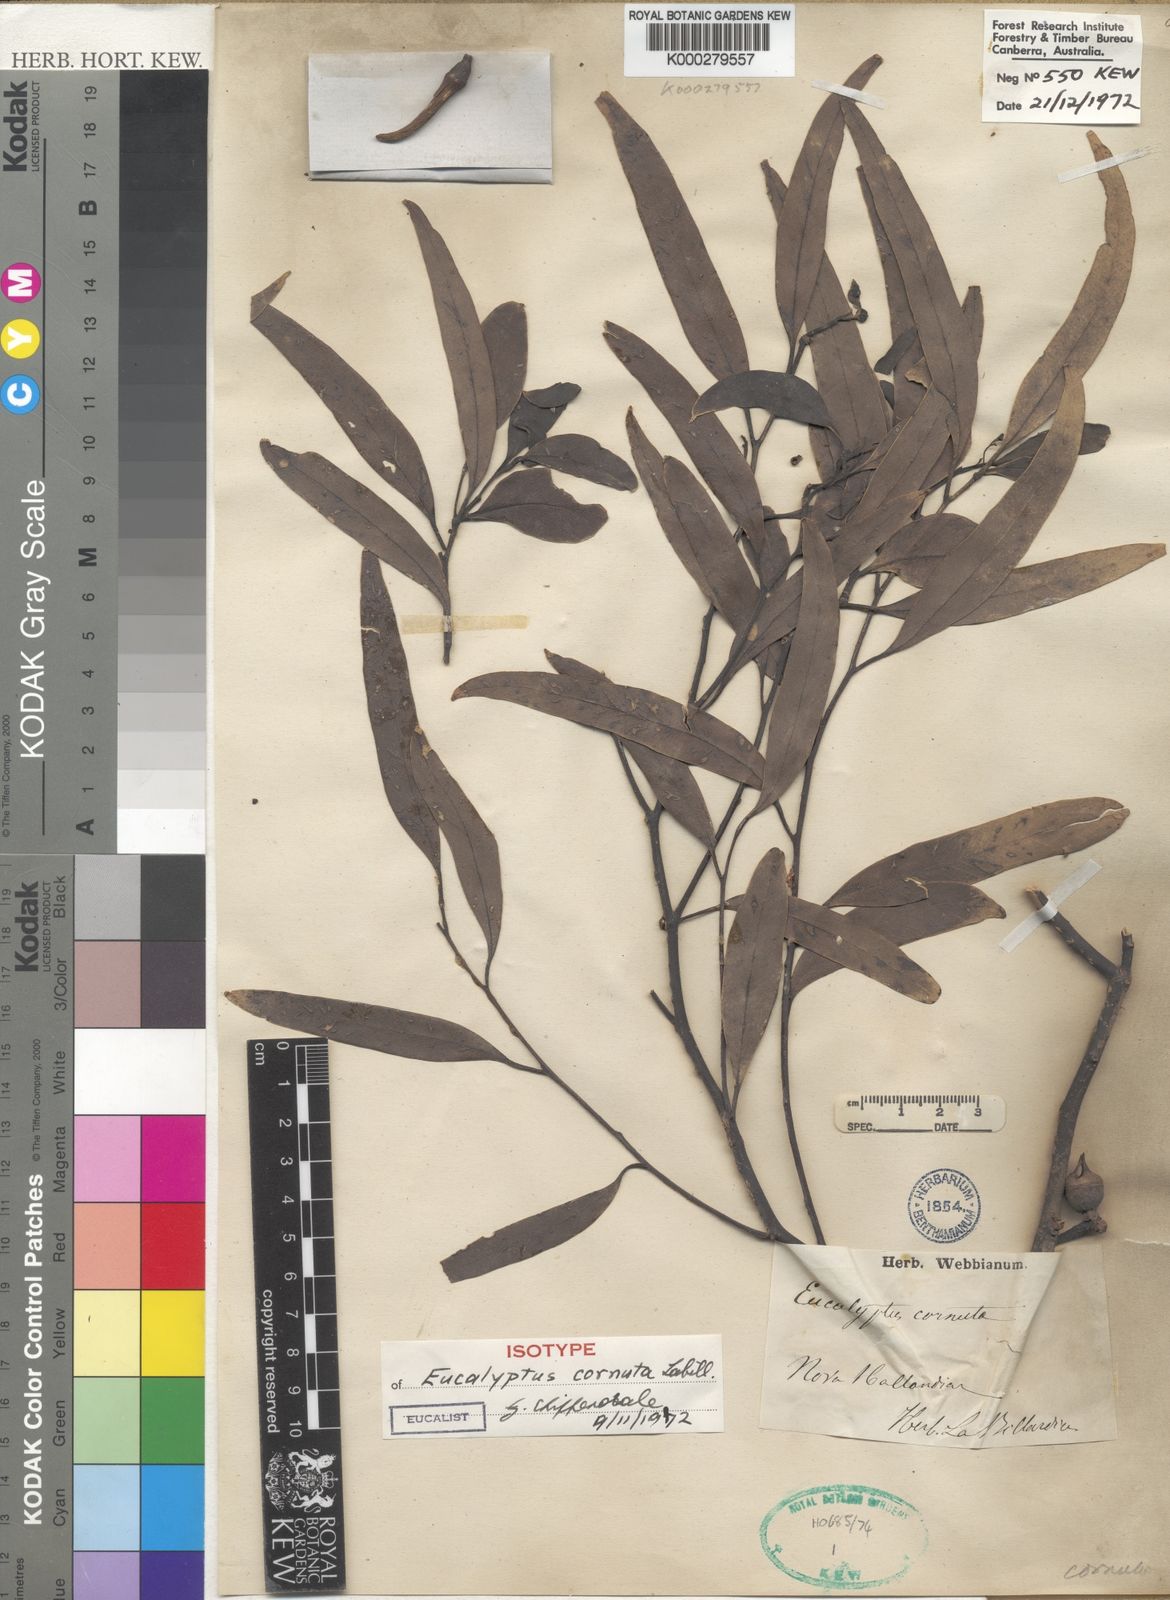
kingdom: Plantae
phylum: Tracheophyta
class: Magnoliopsida
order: Myrtales
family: Myrtaceae
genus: Eucalyptus
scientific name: Eucalyptus cornuta
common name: Yate
